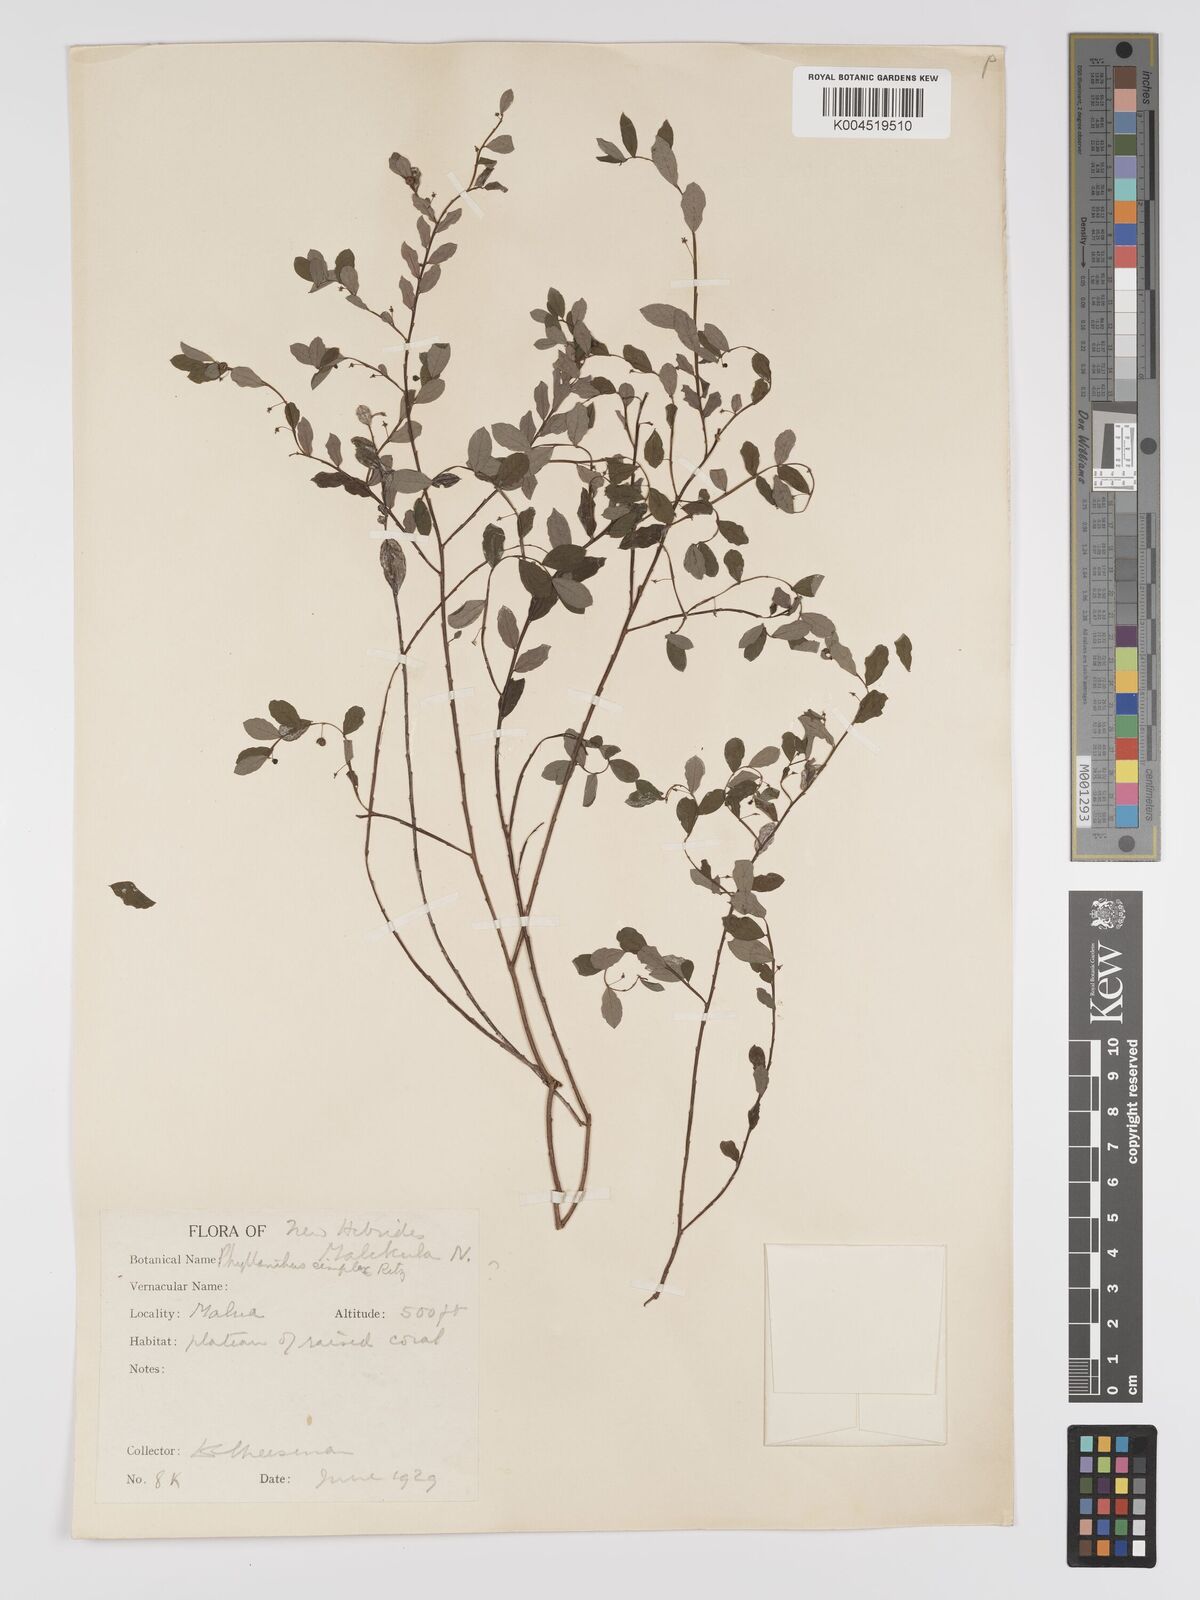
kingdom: Plantae
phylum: Tracheophyta
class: Magnoliopsida
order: Malpighiales
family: Phyllanthaceae
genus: Phyllanthus
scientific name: Phyllanthus
